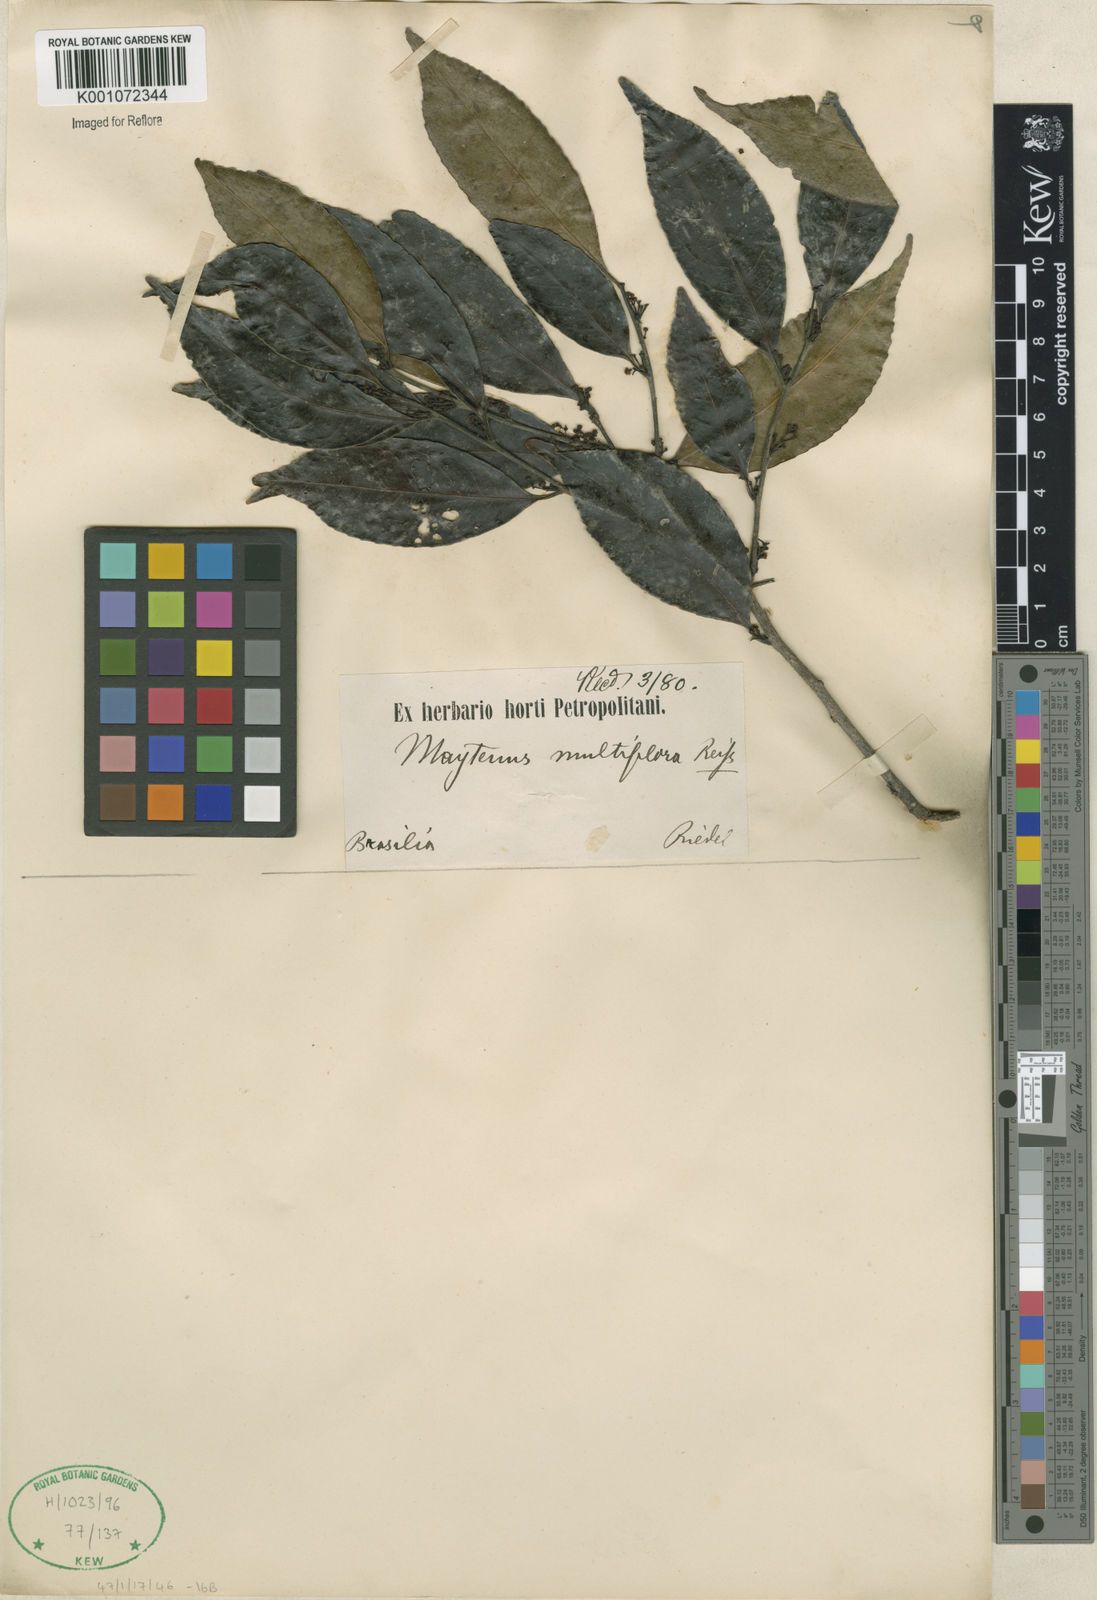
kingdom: Plantae
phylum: Tracheophyta
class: Magnoliopsida
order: Celastrales
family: Celastraceae
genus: Monteverdia
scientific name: Monteverdia macrocarpa
